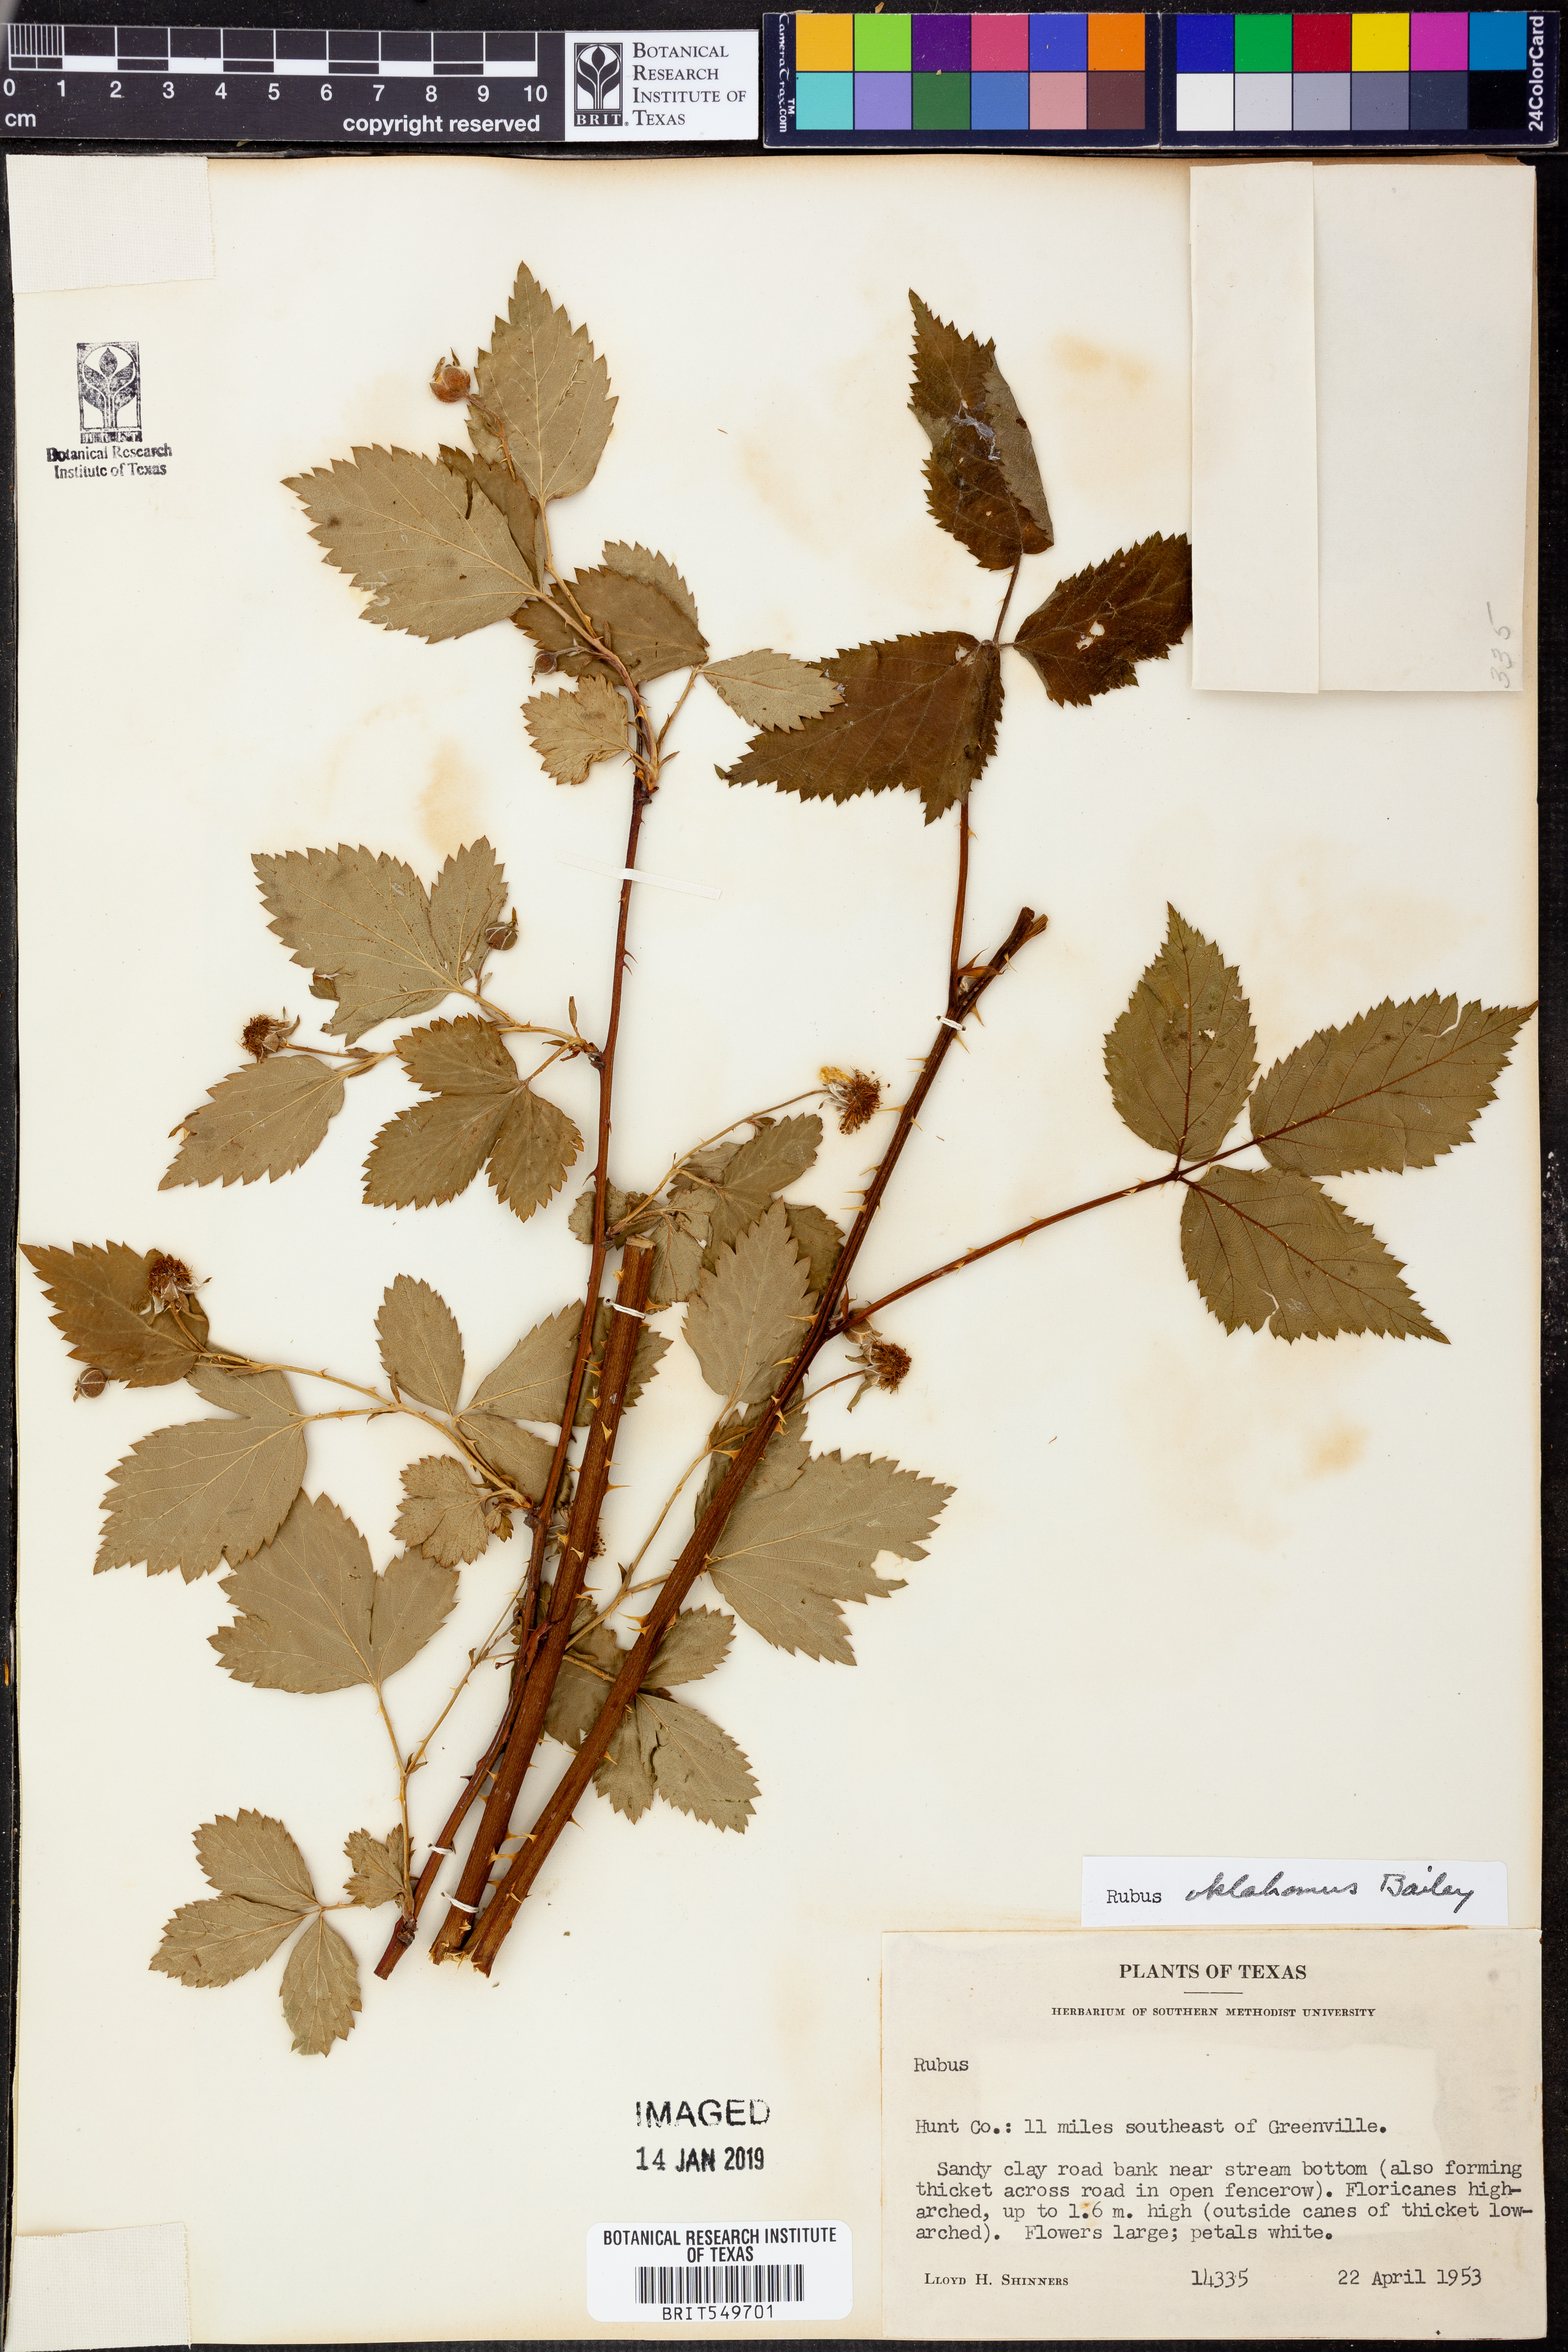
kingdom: Plantae
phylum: Tracheophyta
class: Magnoliopsida
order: Rosales
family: Rosaceae
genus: Rubus
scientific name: Rubus oklahomus
